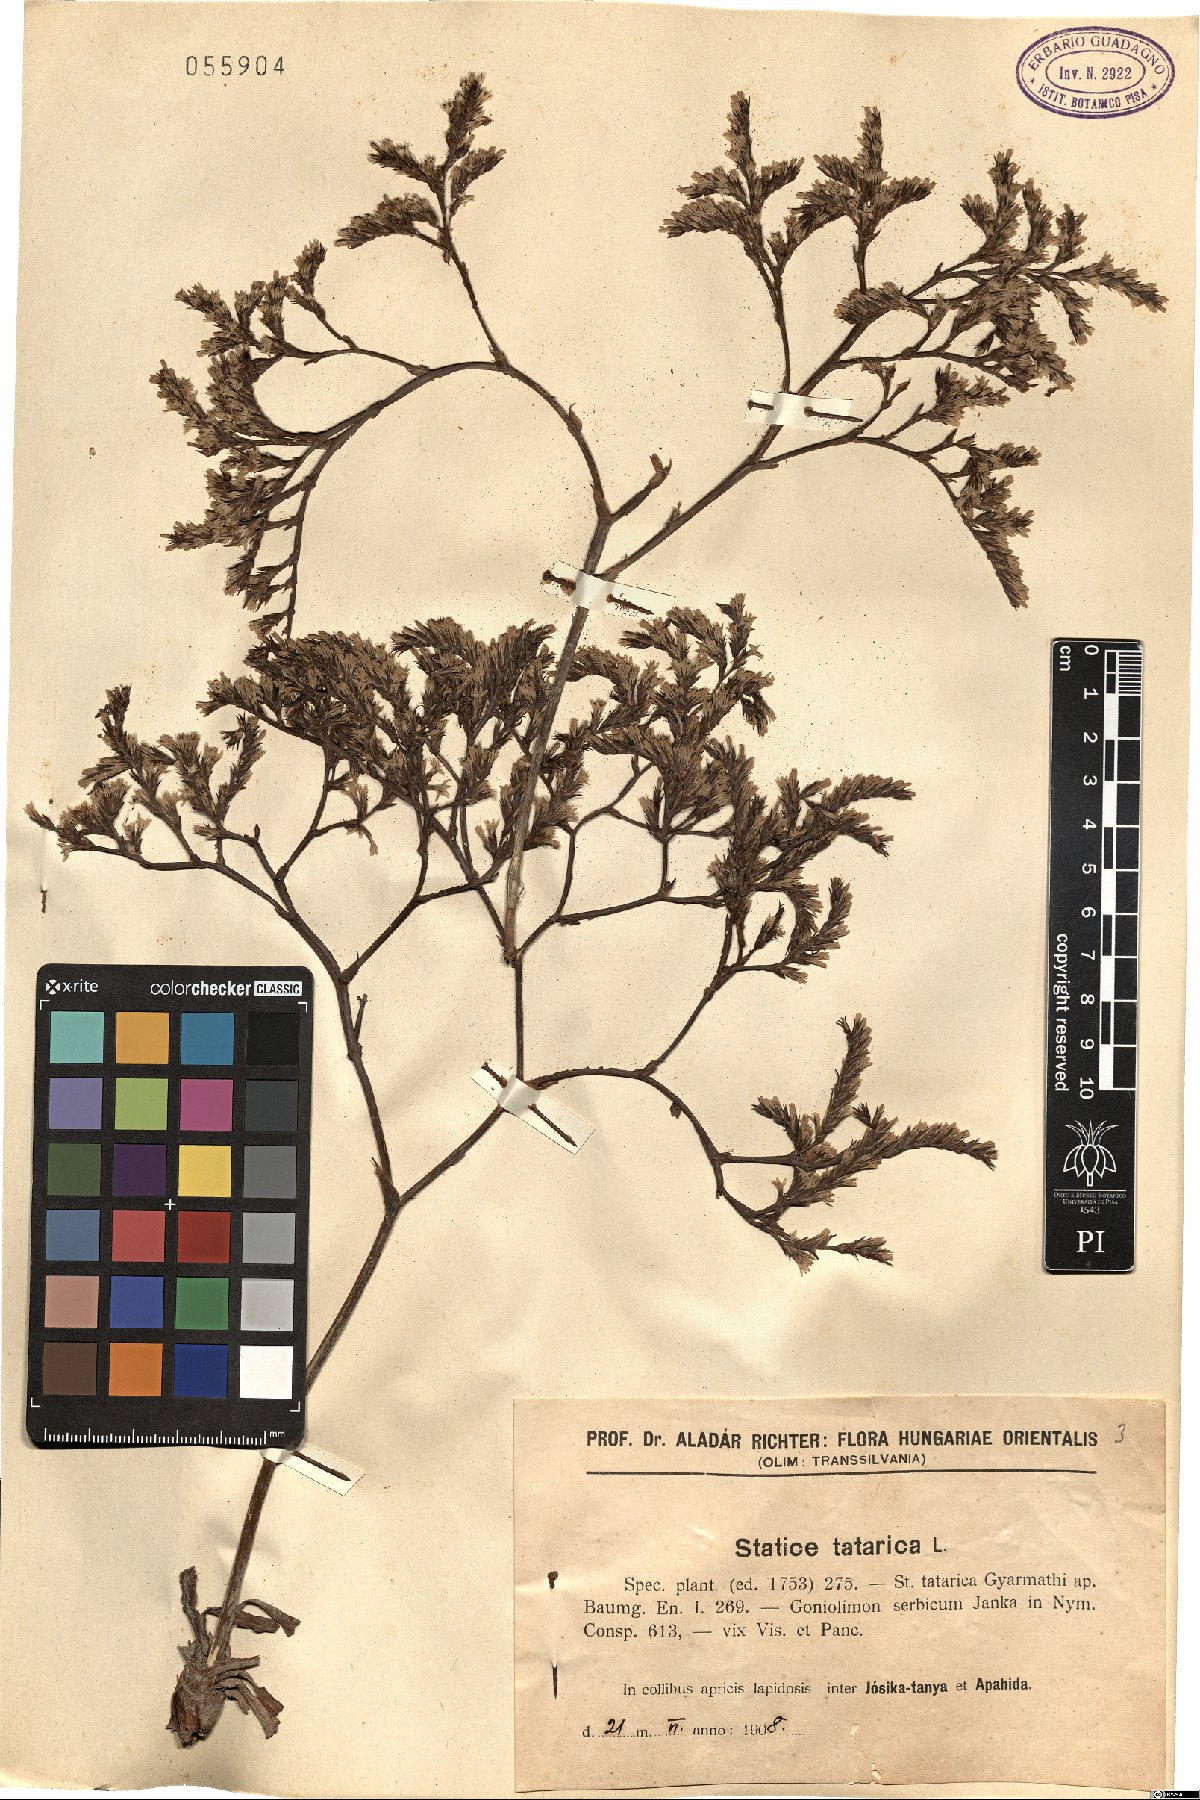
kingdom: Plantae
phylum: Tracheophyta
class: Magnoliopsida
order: Caryophyllales
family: Plumbaginaceae
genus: Goniolimon
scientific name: Goniolimon tataricum
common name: Statice
